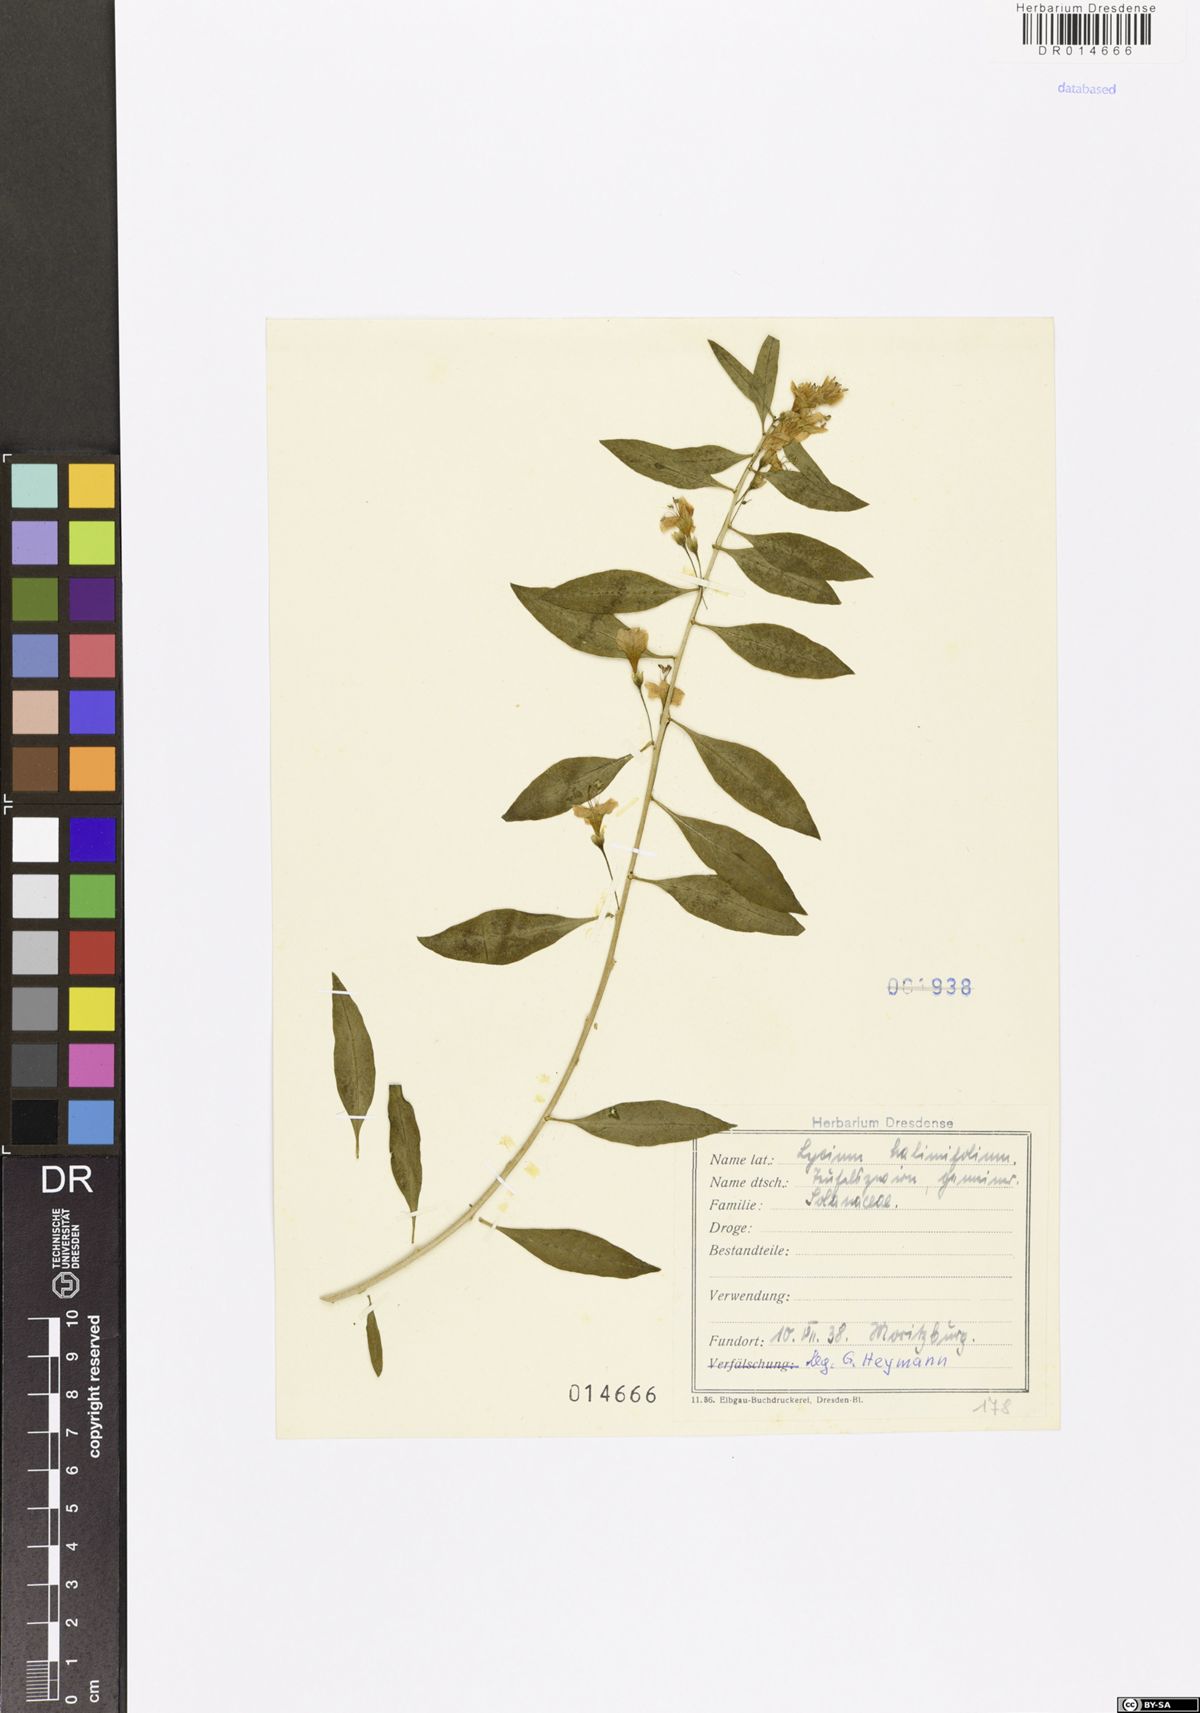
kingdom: Plantae
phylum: Tracheophyta
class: Magnoliopsida
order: Solanales
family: Solanaceae
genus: Lycium
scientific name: Lycium barbarum
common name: Duke of argyll's teaplant
